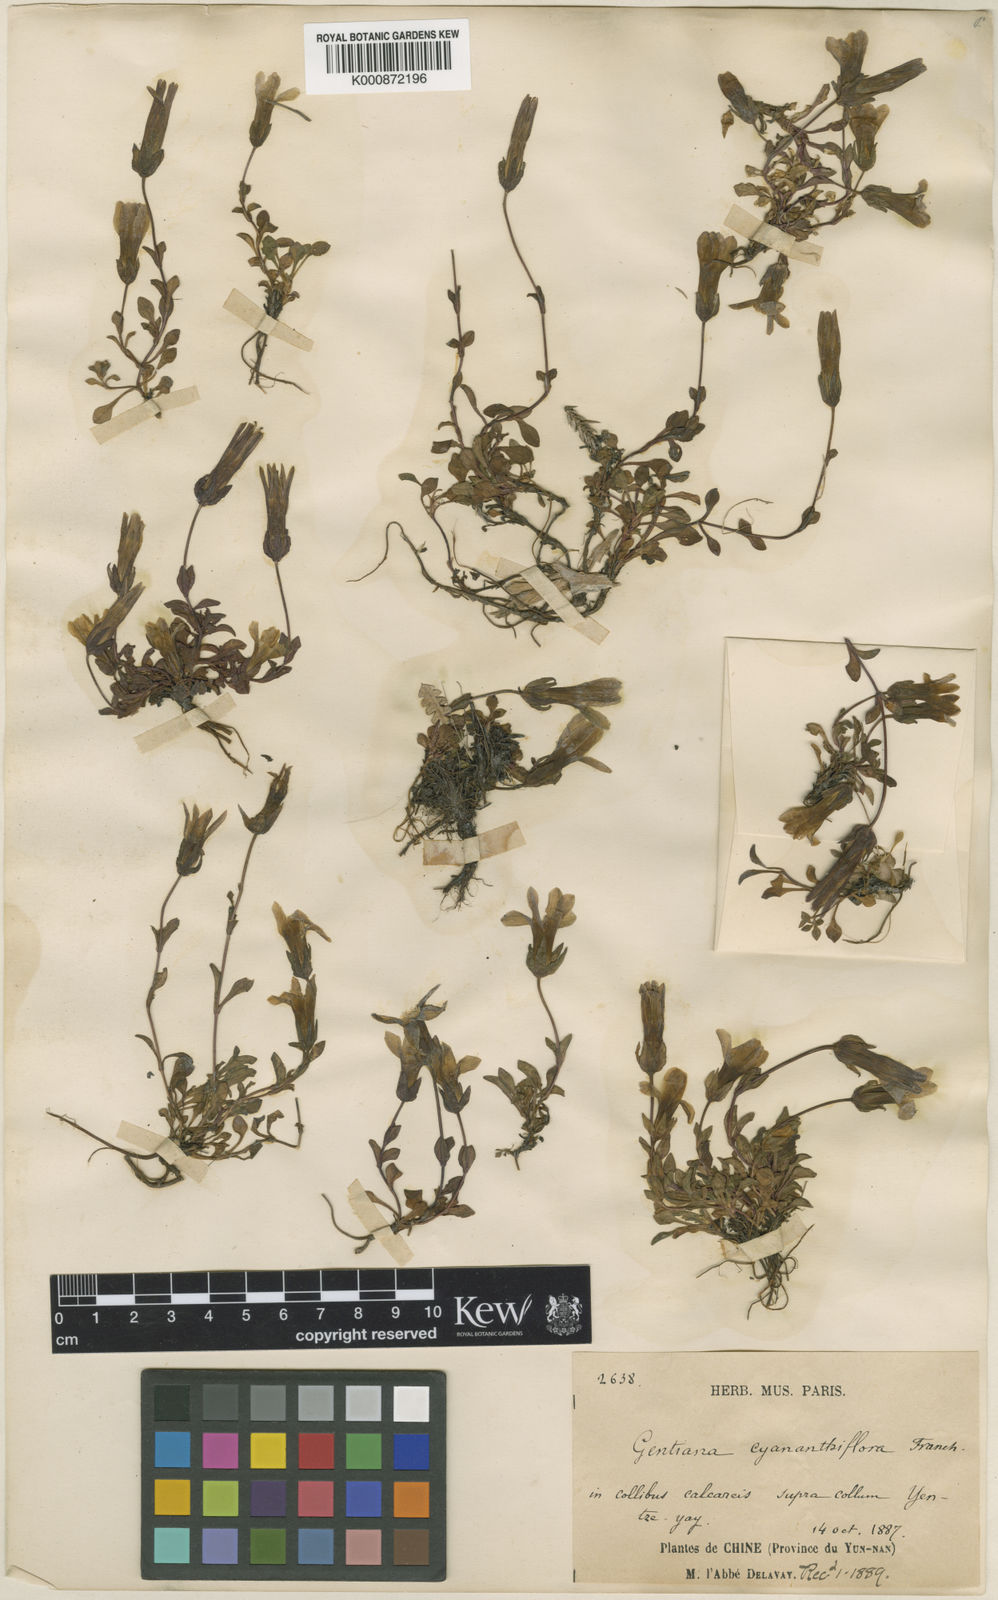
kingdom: Plantae
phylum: Tracheophyta
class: Magnoliopsida
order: Gentianales
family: Gentianaceae
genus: Comastoma
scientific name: Comastoma cyananthiflorum
